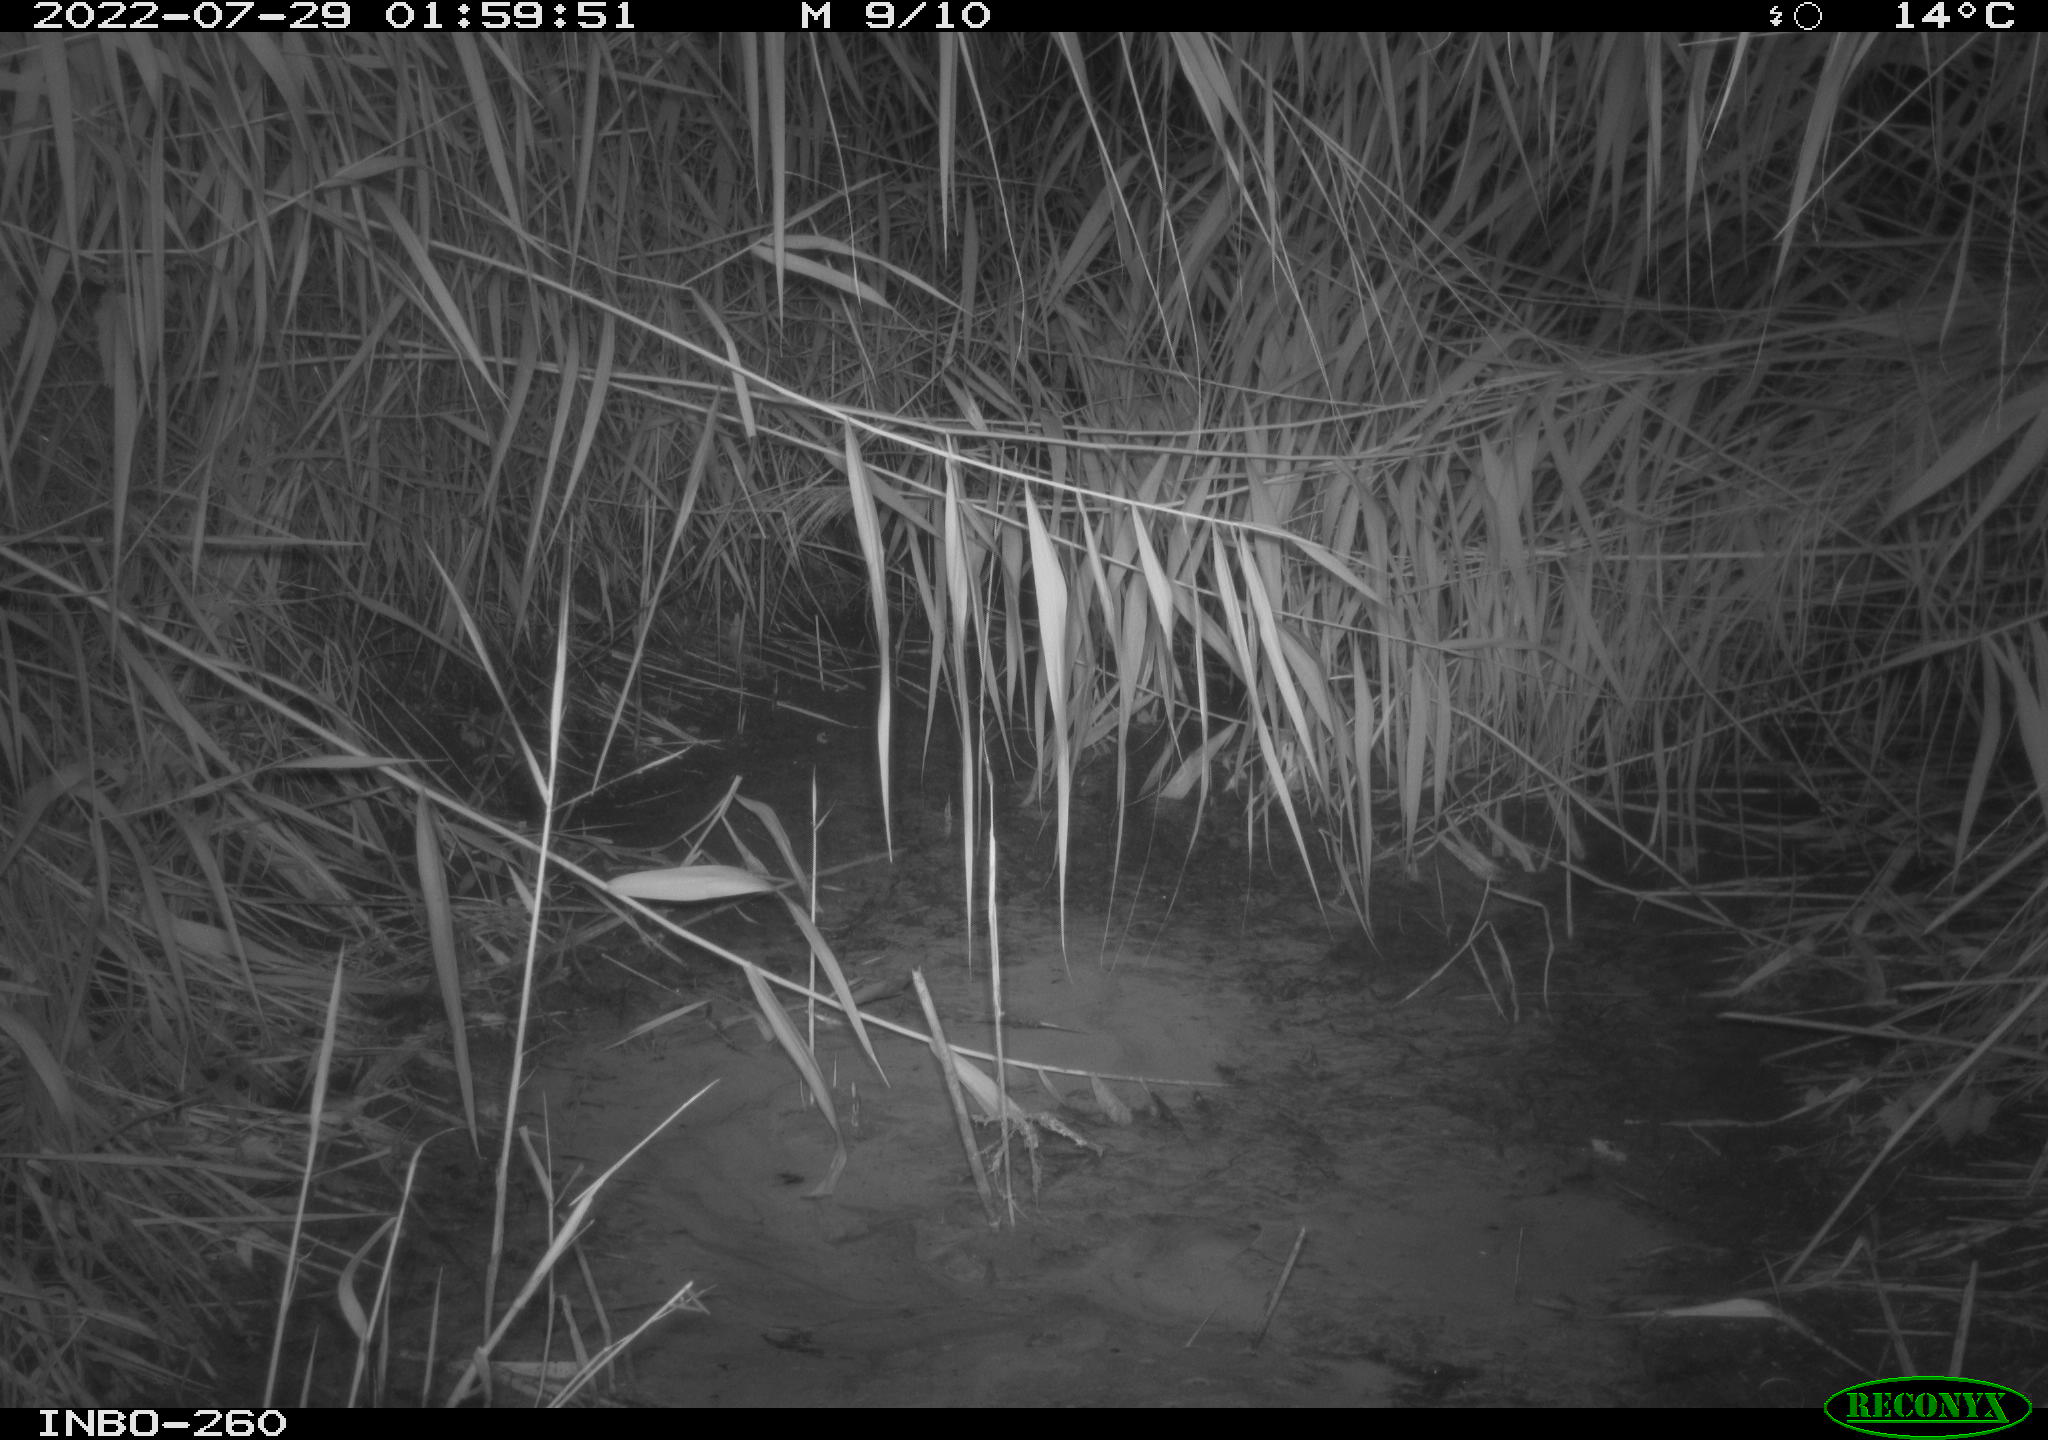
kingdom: Animalia
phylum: Chordata
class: Mammalia
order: Rodentia
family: Muridae
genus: Rattus
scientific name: Rattus norvegicus
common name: Brown rat
